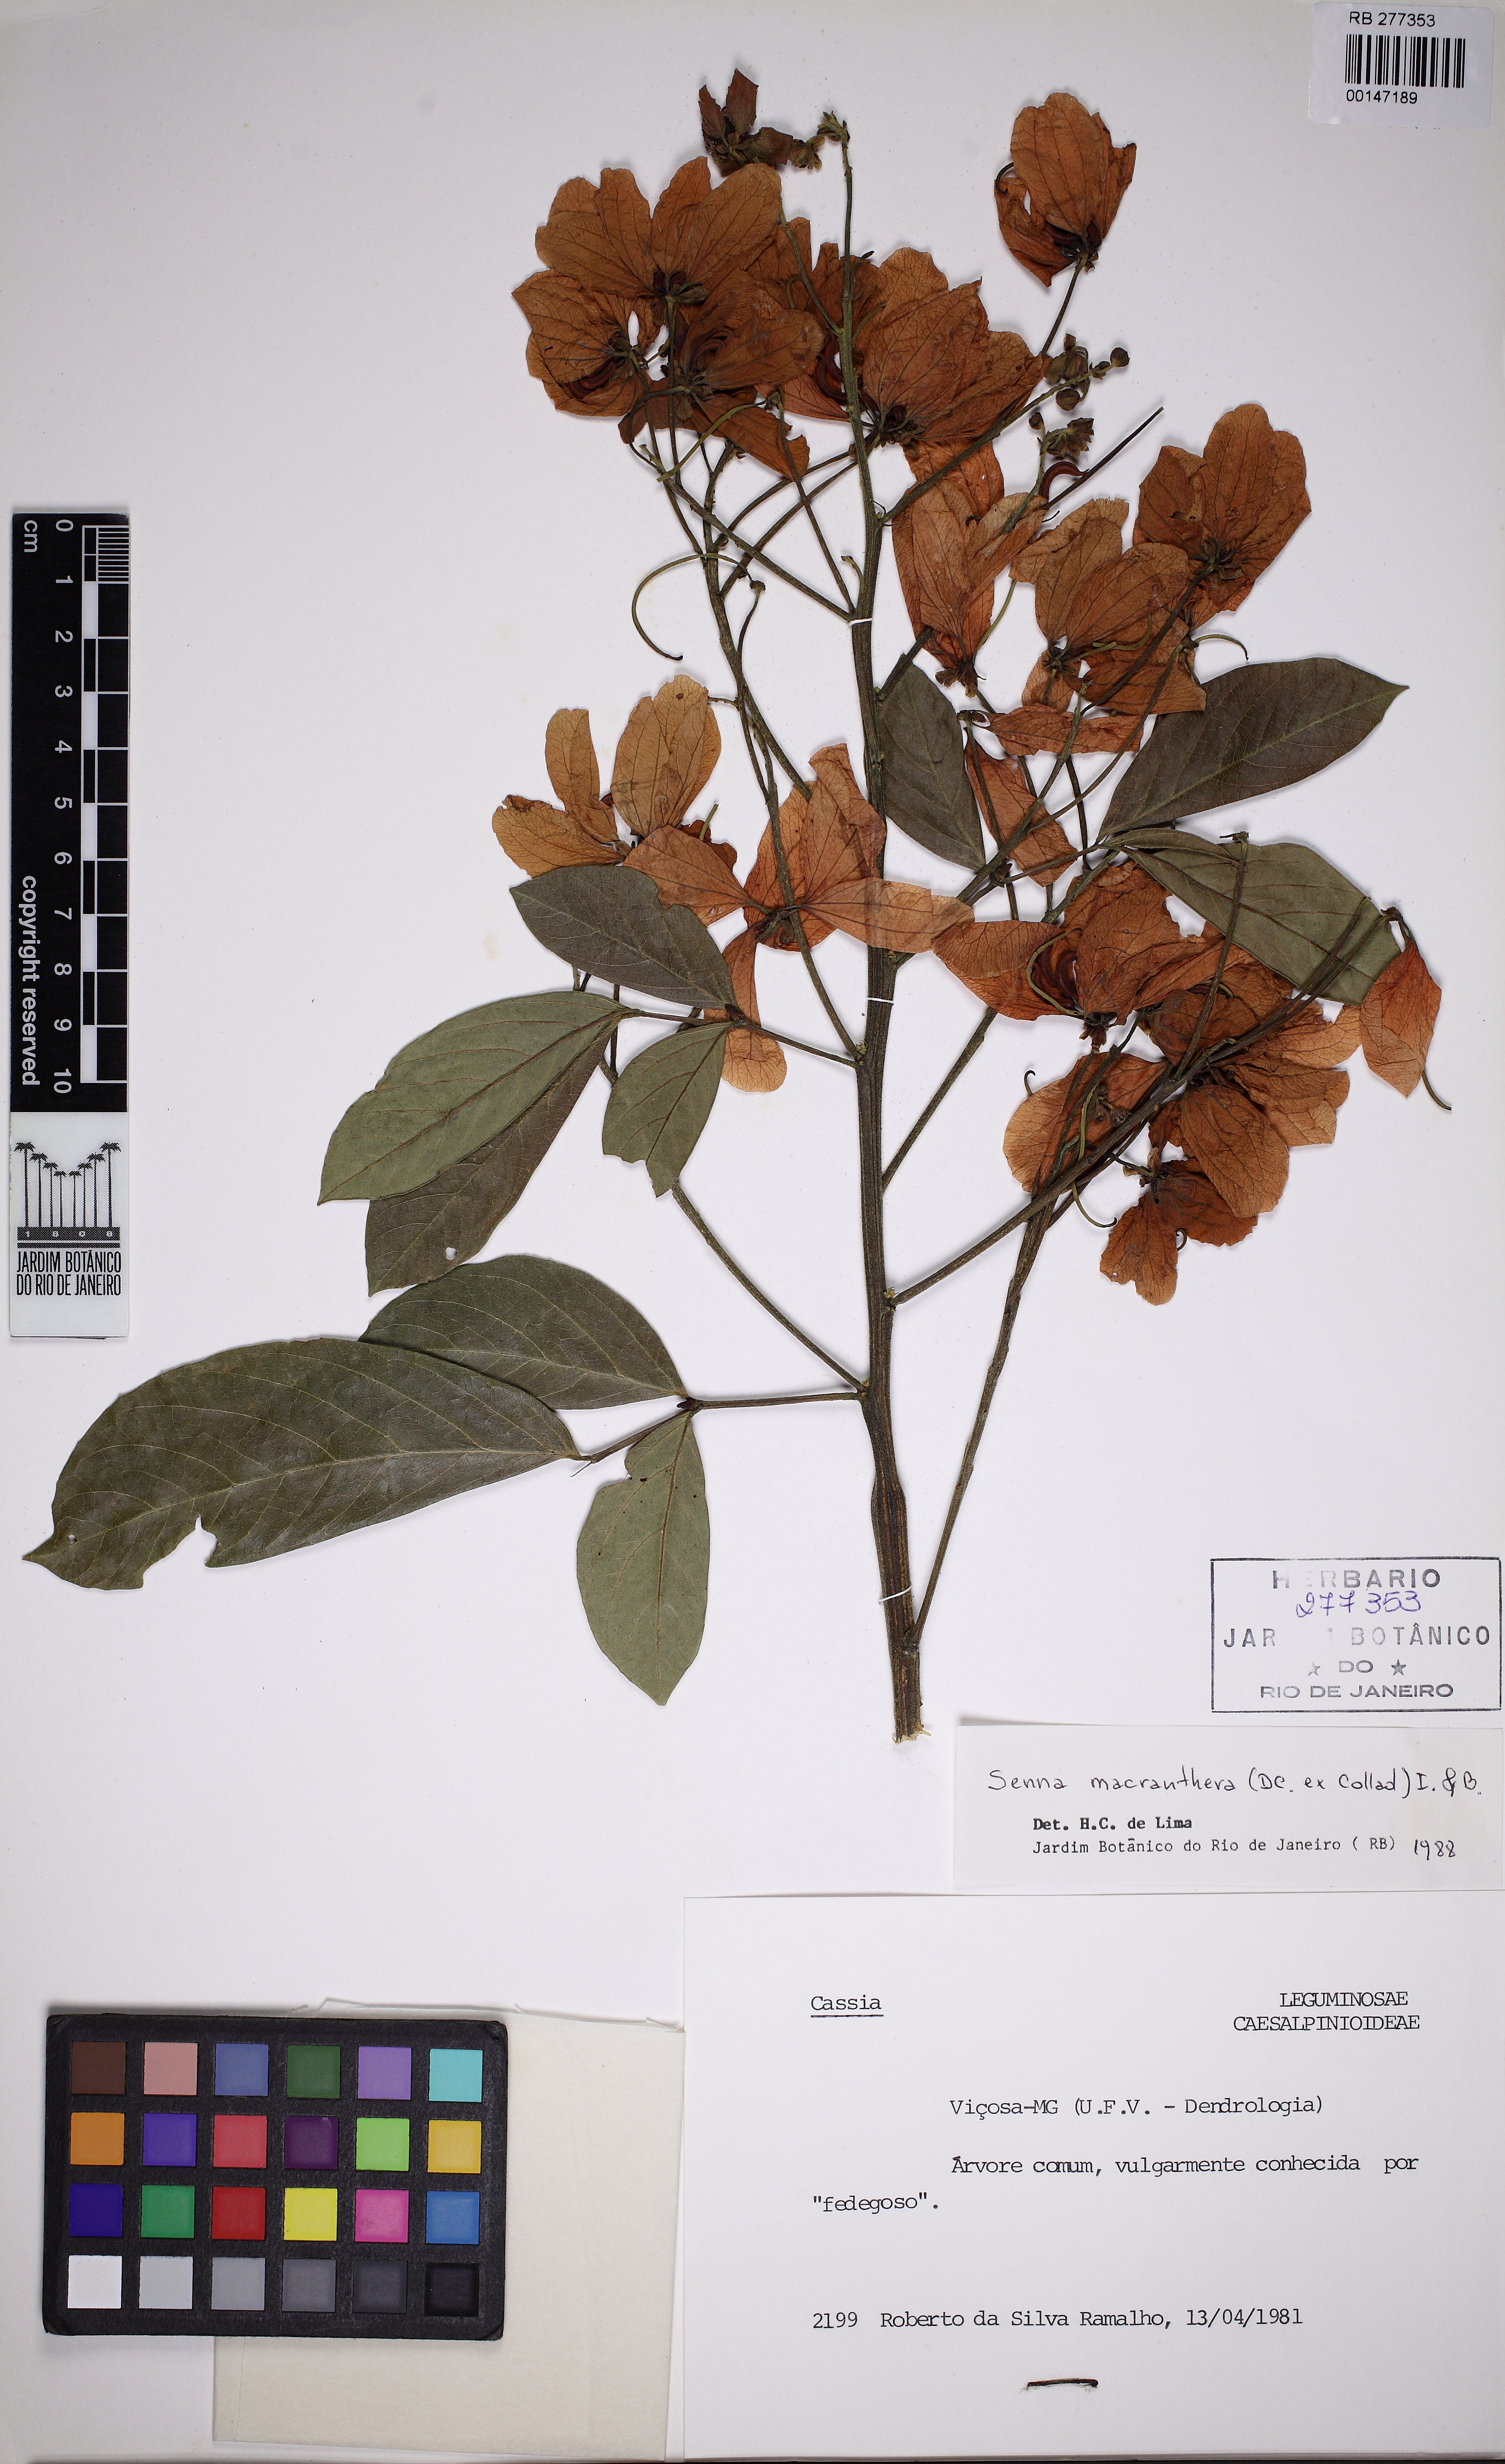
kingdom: Plantae
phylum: Tracheophyta
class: Magnoliopsida
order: Fabales
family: Fabaceae
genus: Senna
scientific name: Senna macranthera
